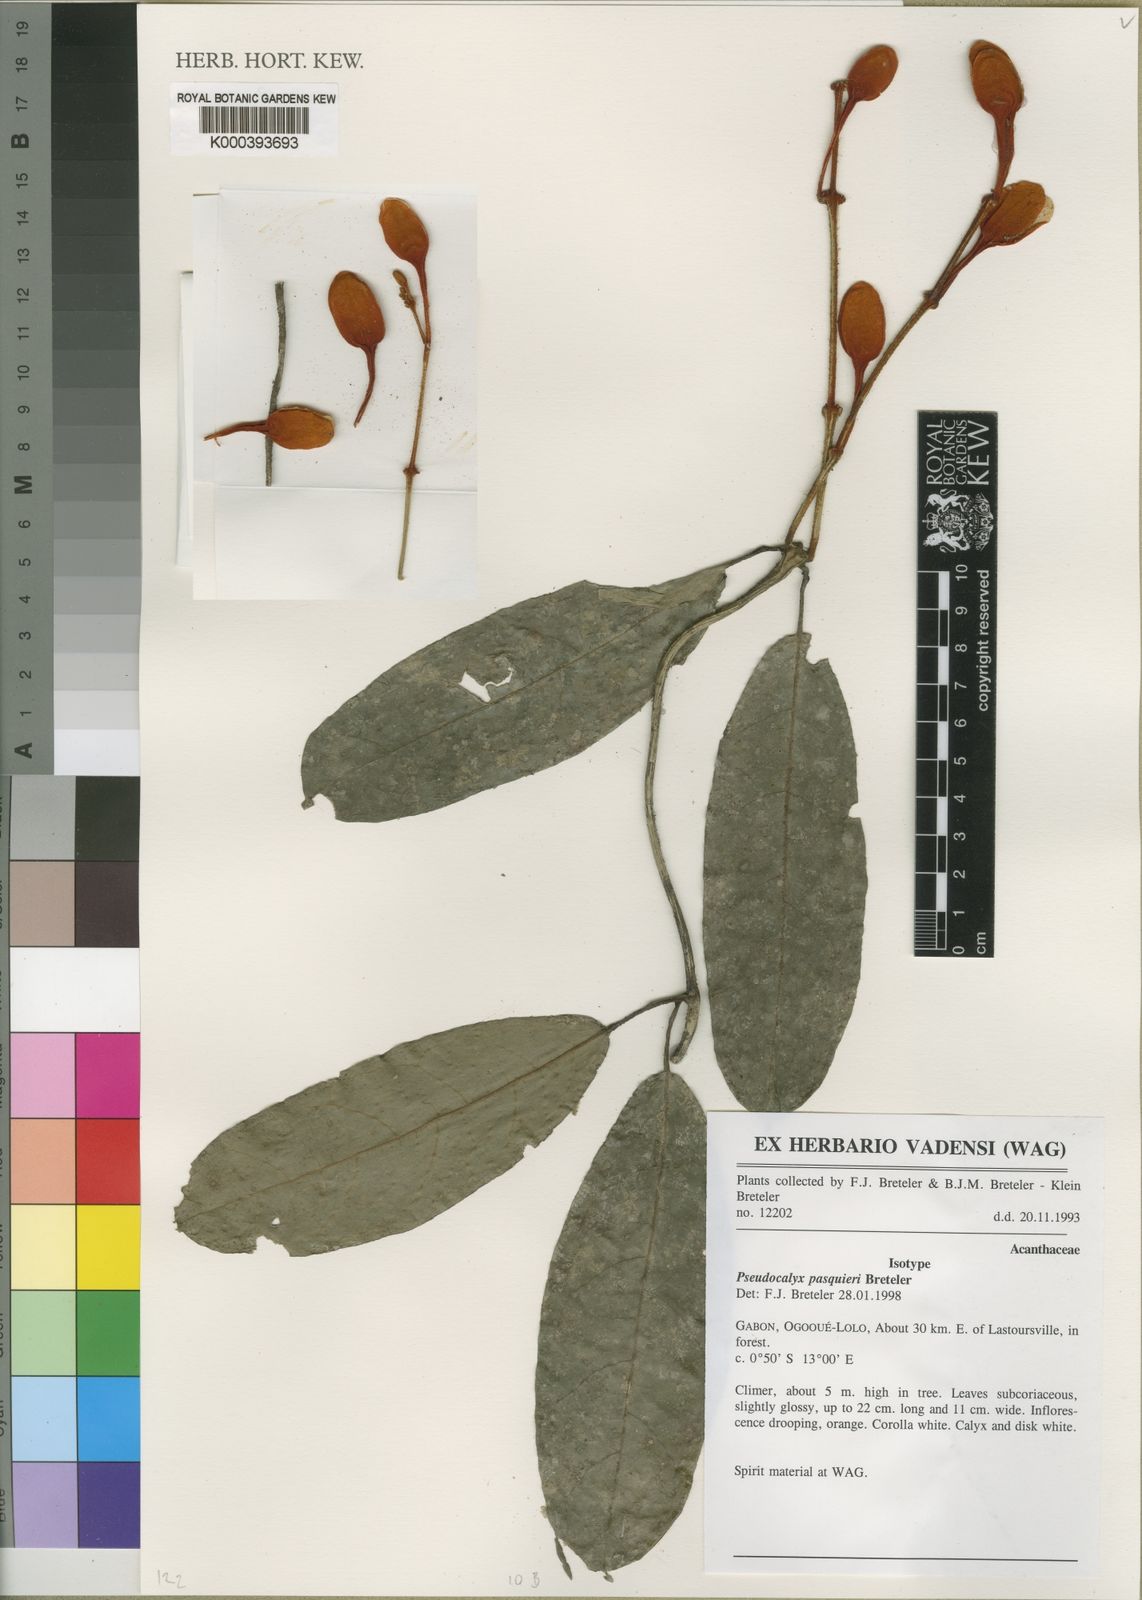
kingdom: Plantae
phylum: Tracheophyta
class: Magnoliopsida
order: Lamiales
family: Acanthaceae
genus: Pseudocalyx
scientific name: Pseudocalyx
